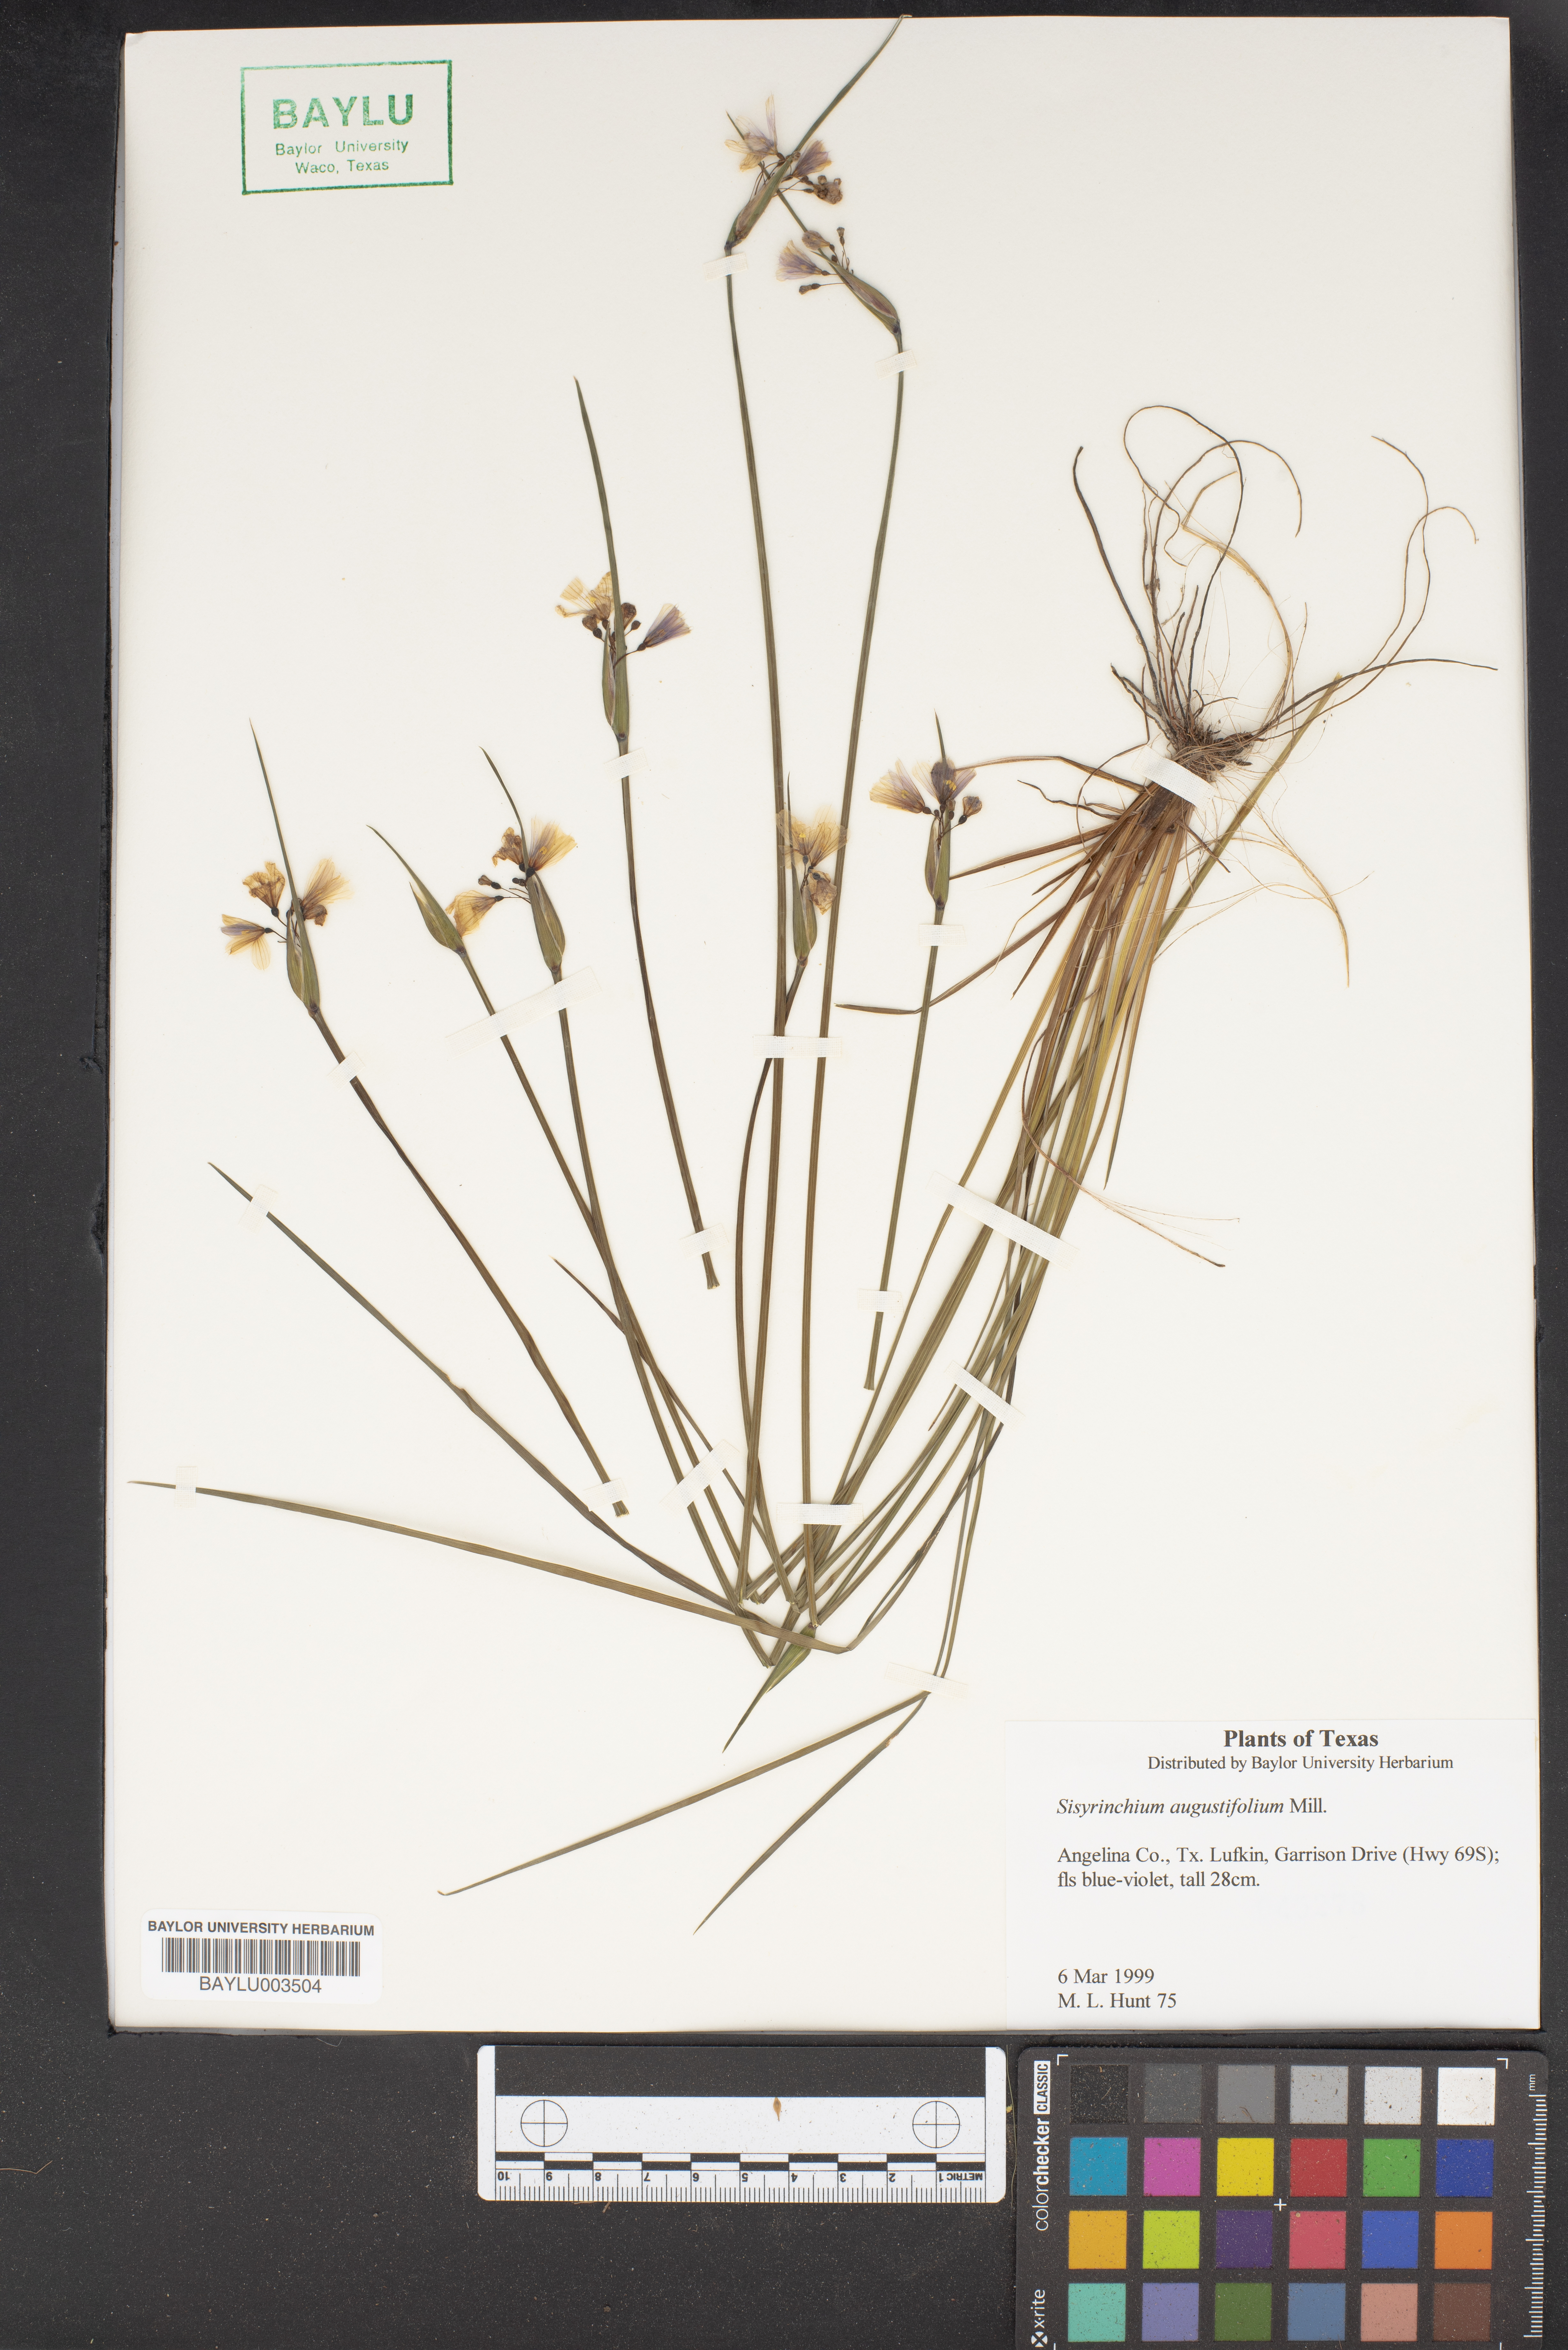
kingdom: Plantae
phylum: Tracheophyta
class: Liliopsida
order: Asparagales
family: Iridaceae
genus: Sisyrinchium
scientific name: Sisyrinchium angustifolium
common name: Narrow-leaf blue-eyed-grass
